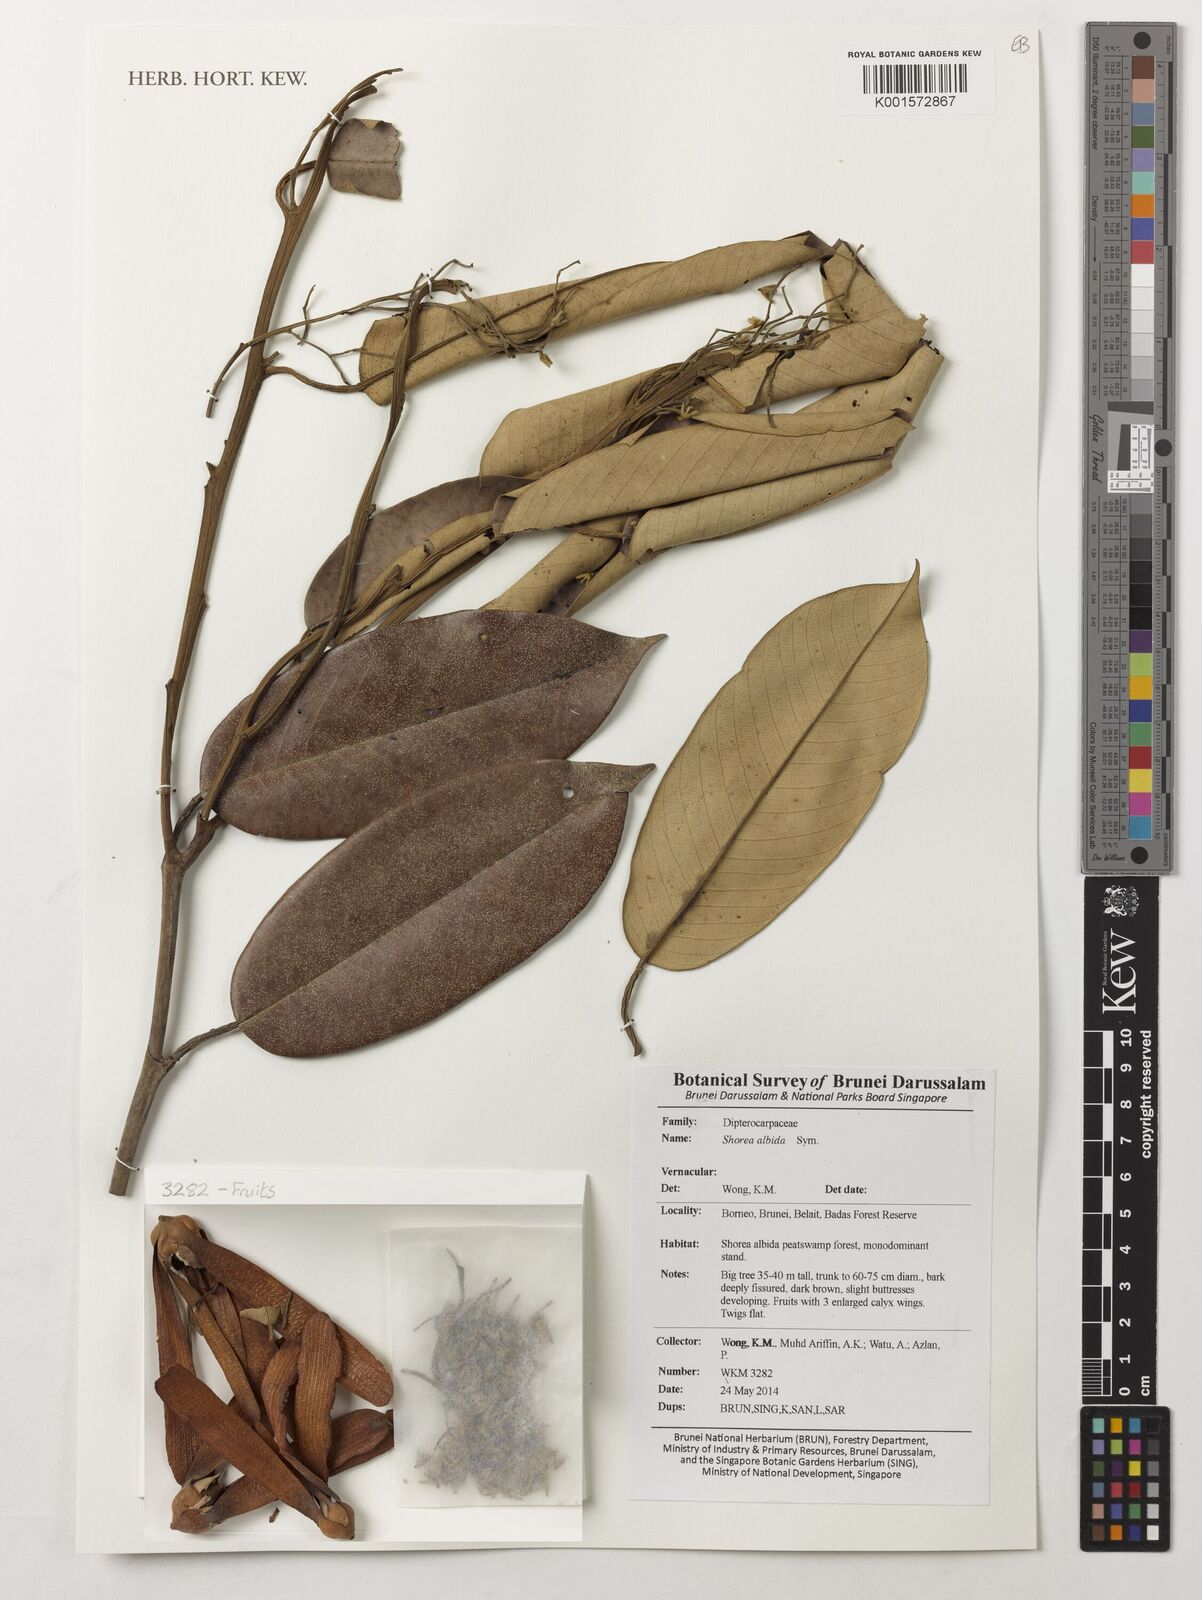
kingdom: Plantae
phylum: Tracheophyta
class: Magnoliopsida
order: Malvales
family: Dipterocarpaceae
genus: Shorea
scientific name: Shorea albida
